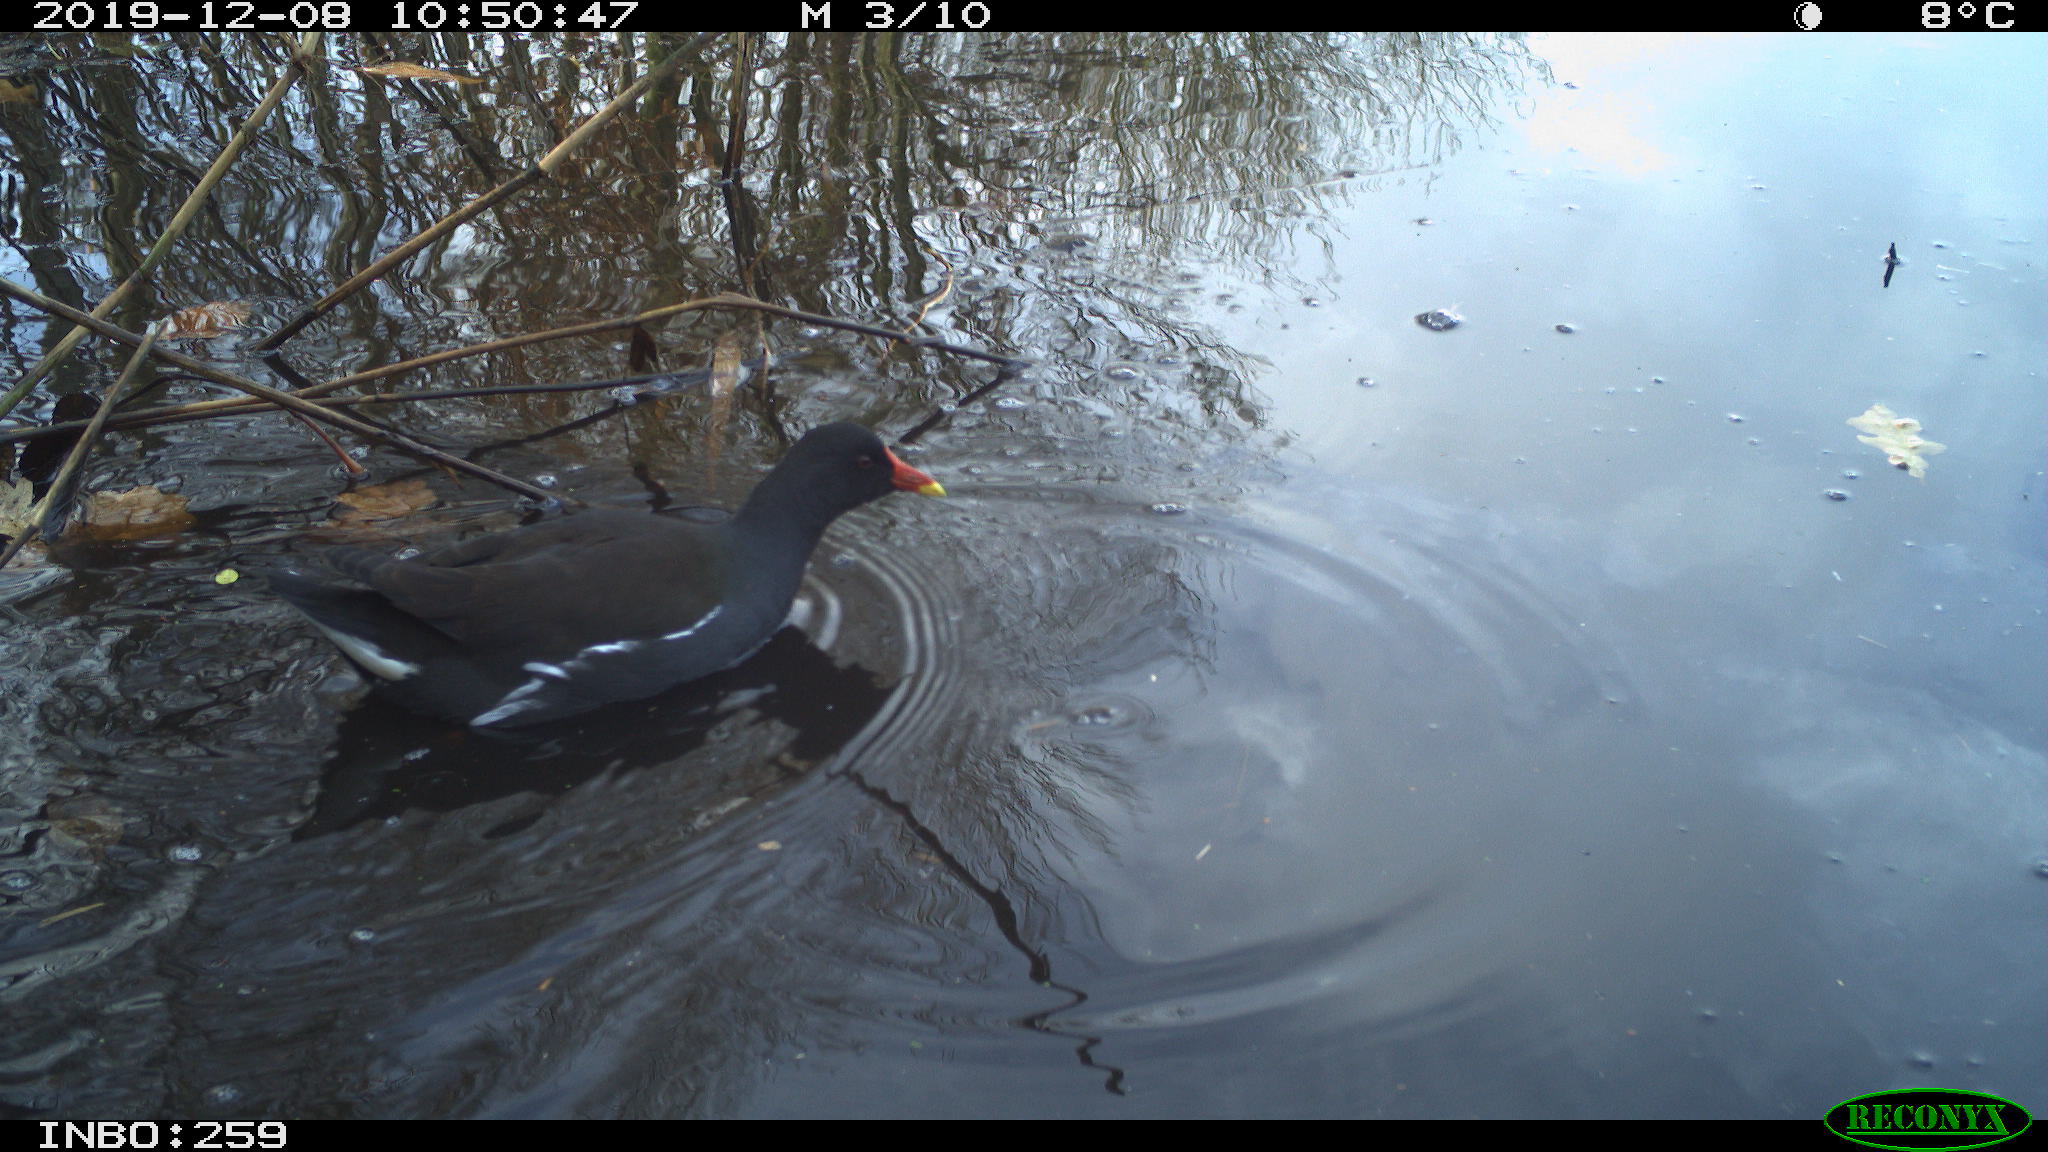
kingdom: Animalia
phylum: Chordata
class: Aves
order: Gruiformes
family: Rallidae
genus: Gallinula
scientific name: Gallinula chloropus
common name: Common moorhen
